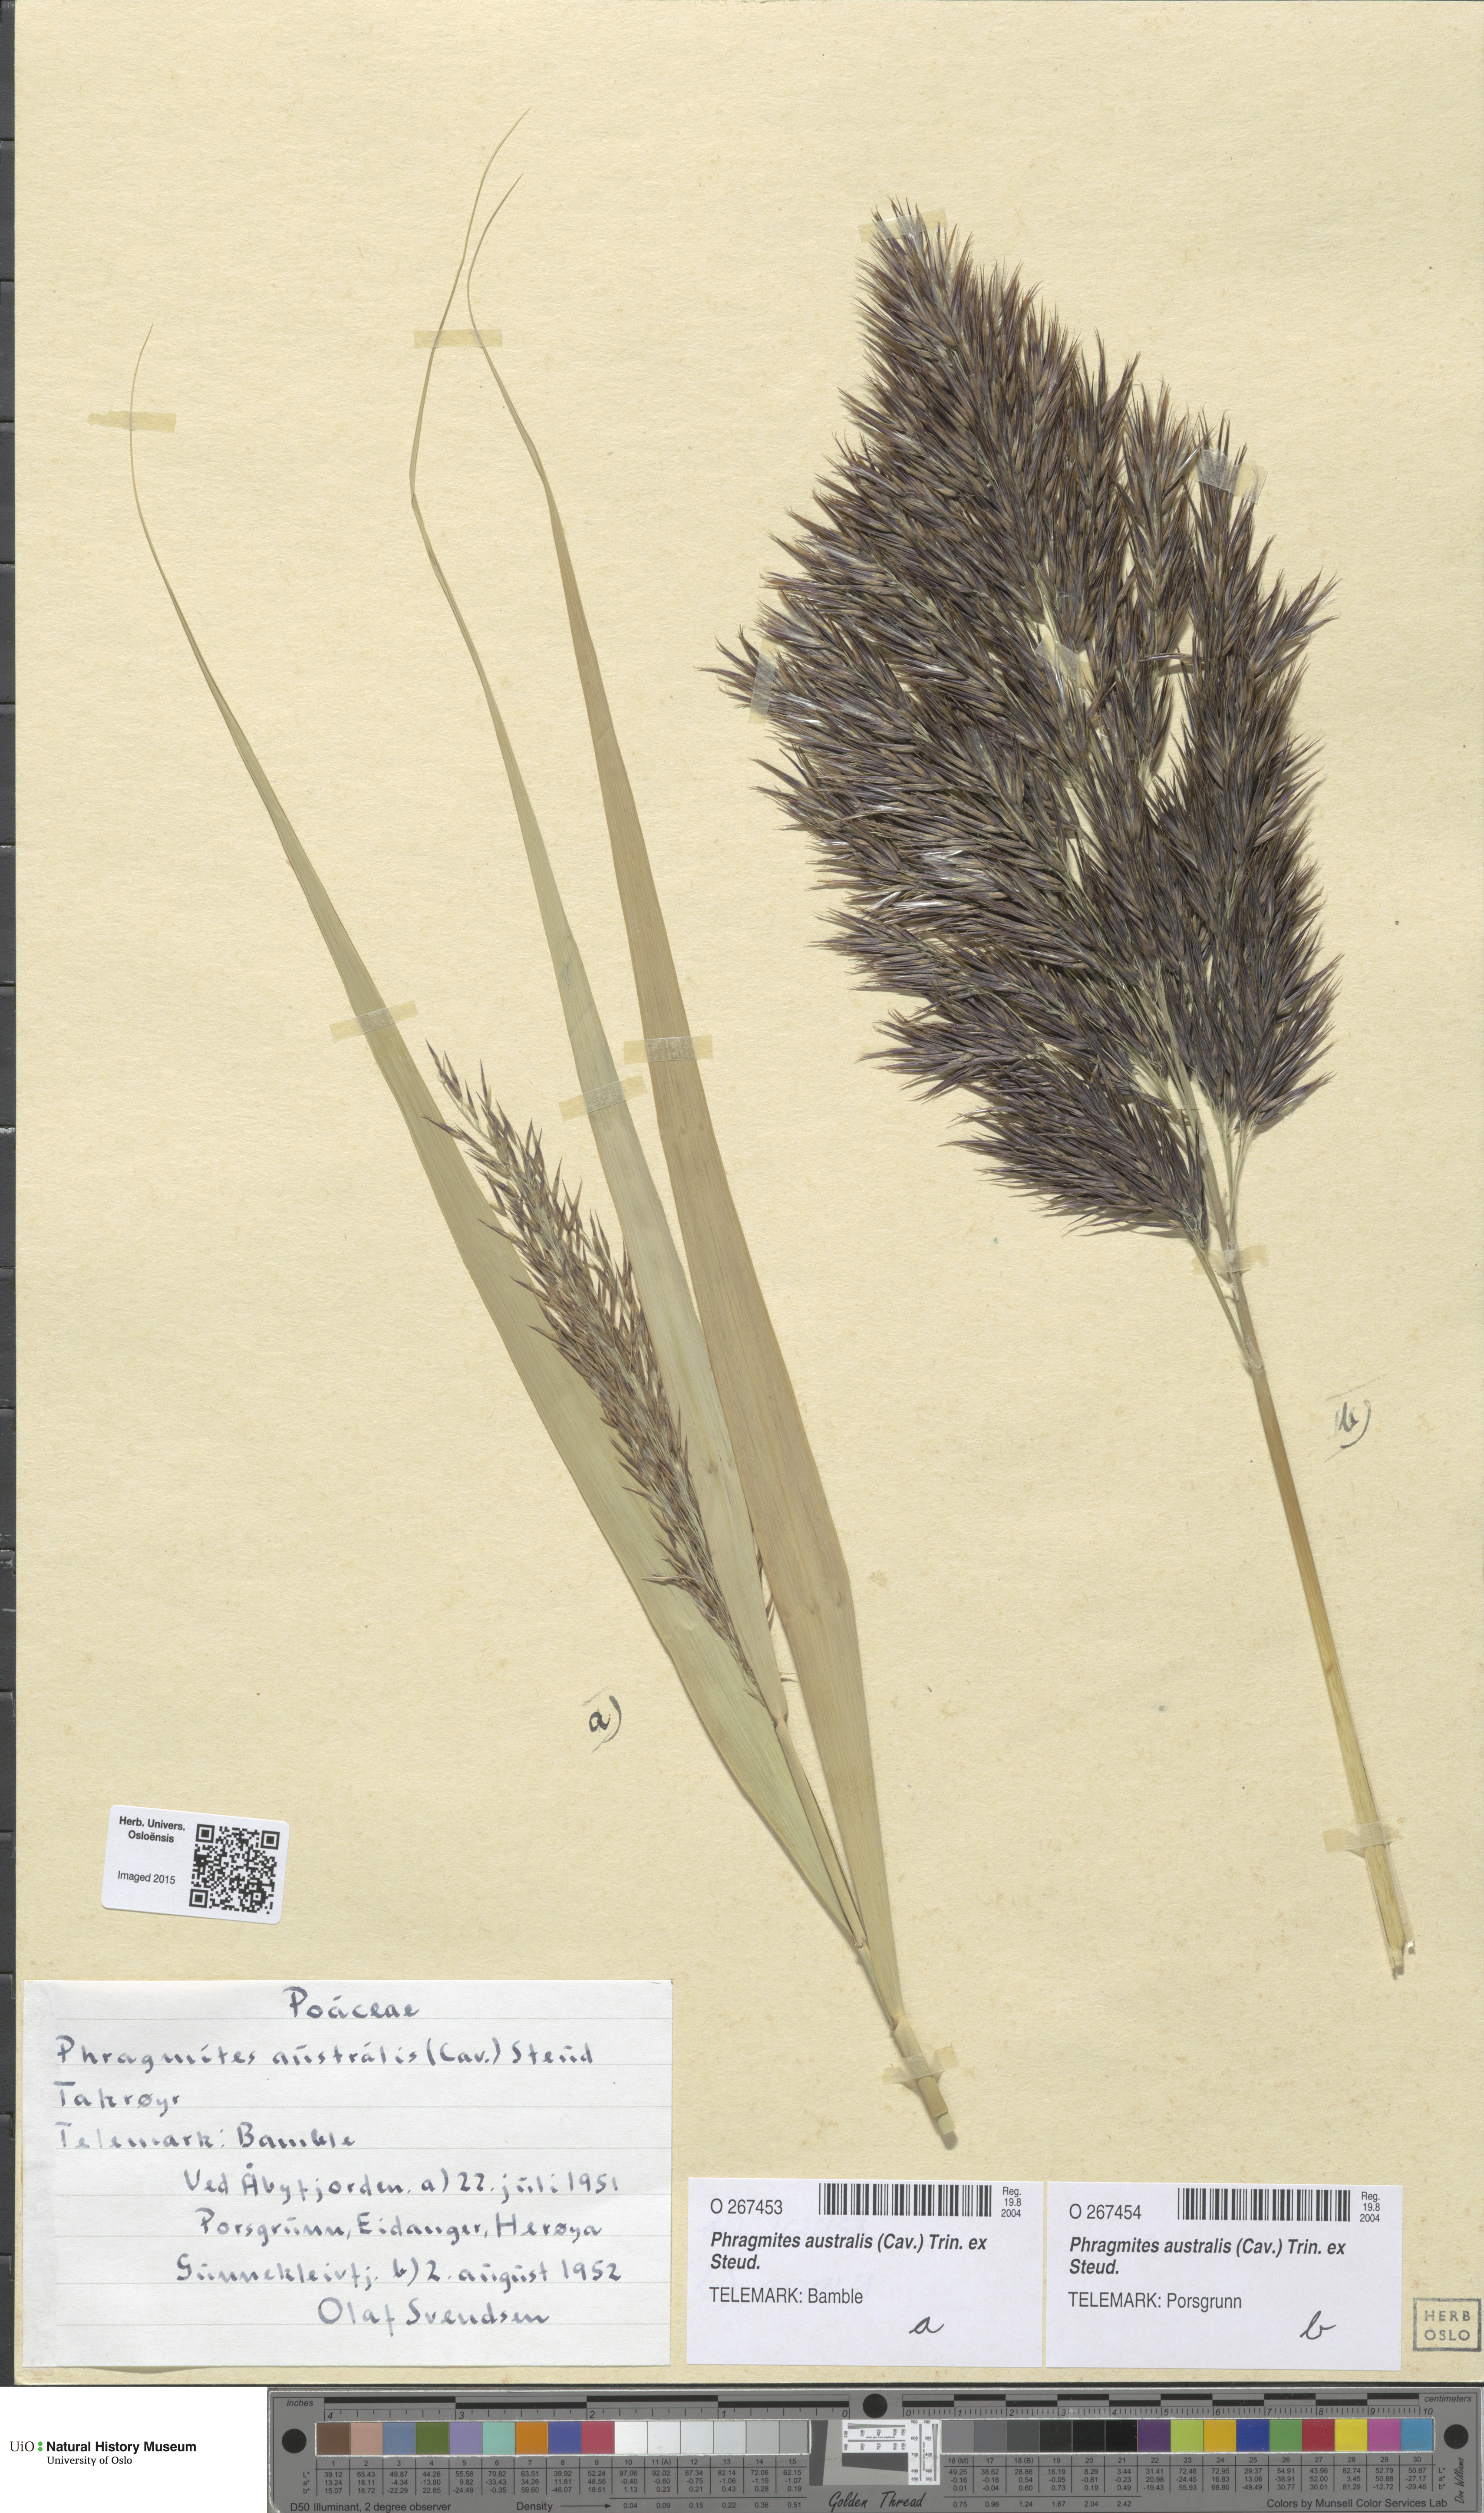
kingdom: Plantae
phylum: Tracheophyta
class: Liliopsida
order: Poales
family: Poaceae
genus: Phragmites
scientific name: Phragmites australis
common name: Common reed
